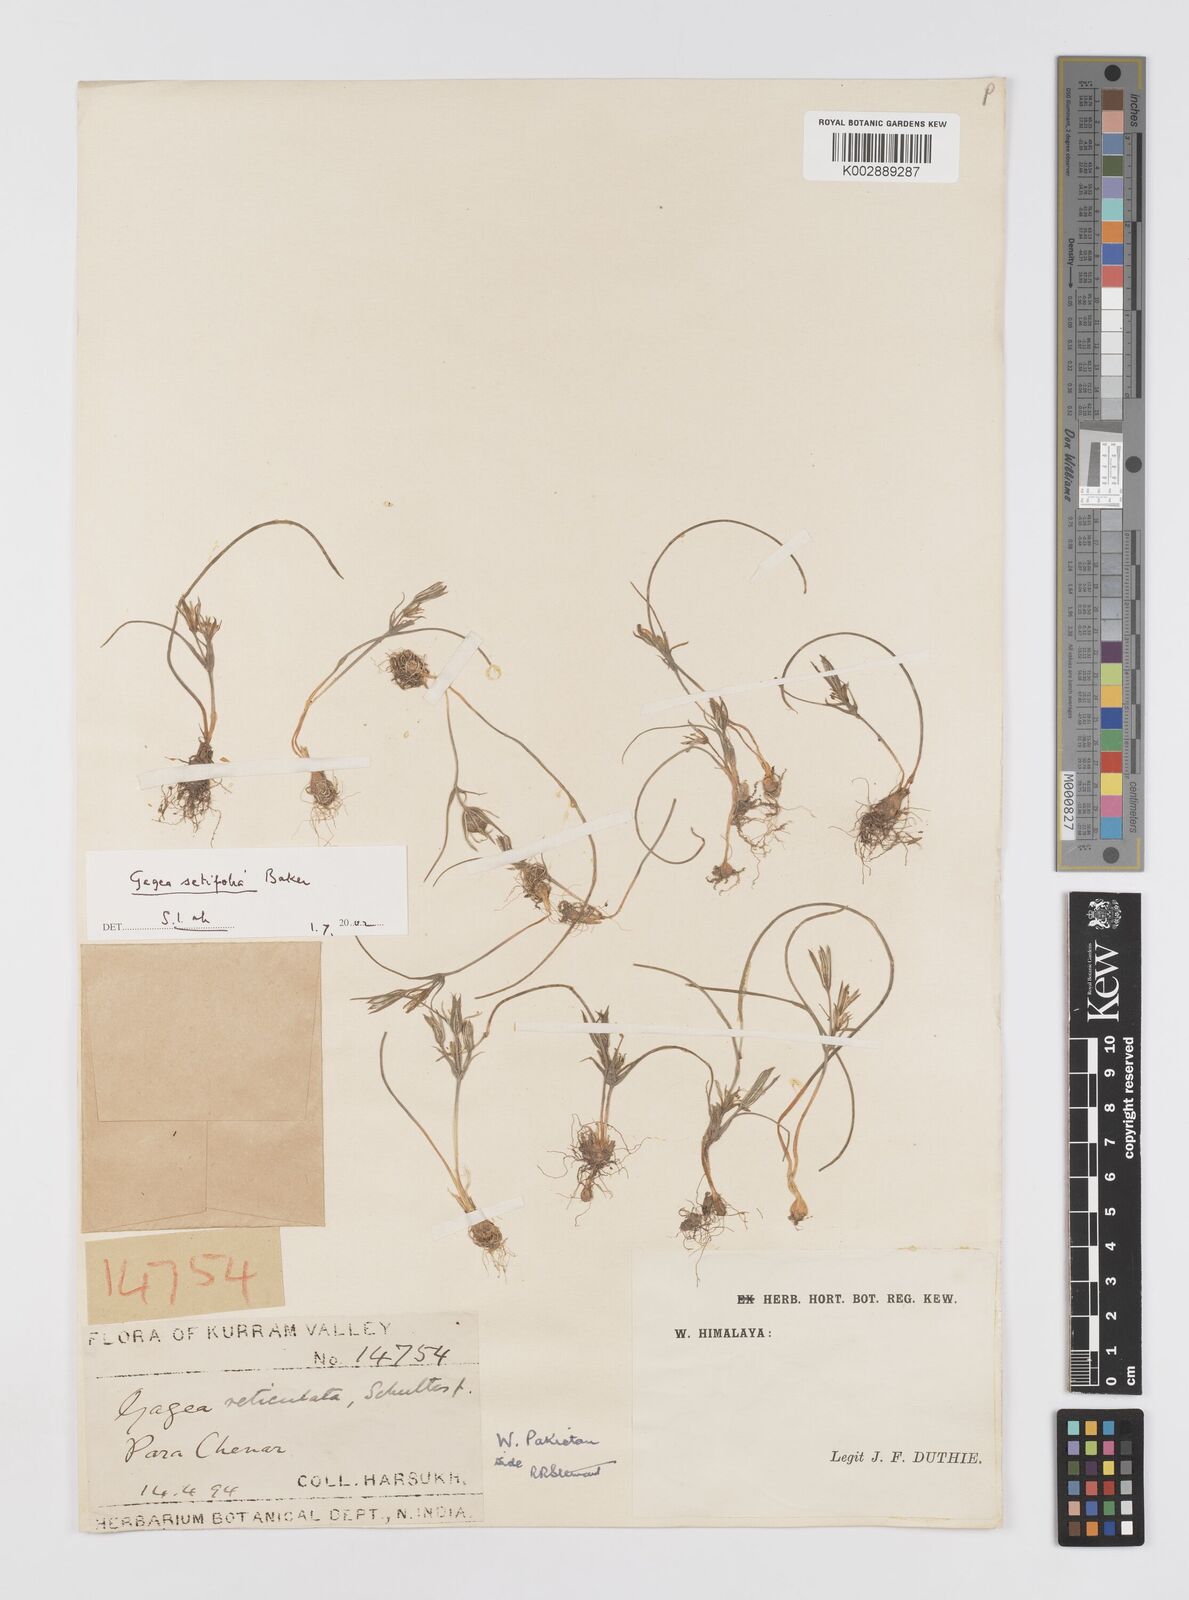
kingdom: Plantae
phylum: Tracheophyta
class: Liliopsida
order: Liliales
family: Liliaceae
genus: Gagea
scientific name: Gagea setifolia
